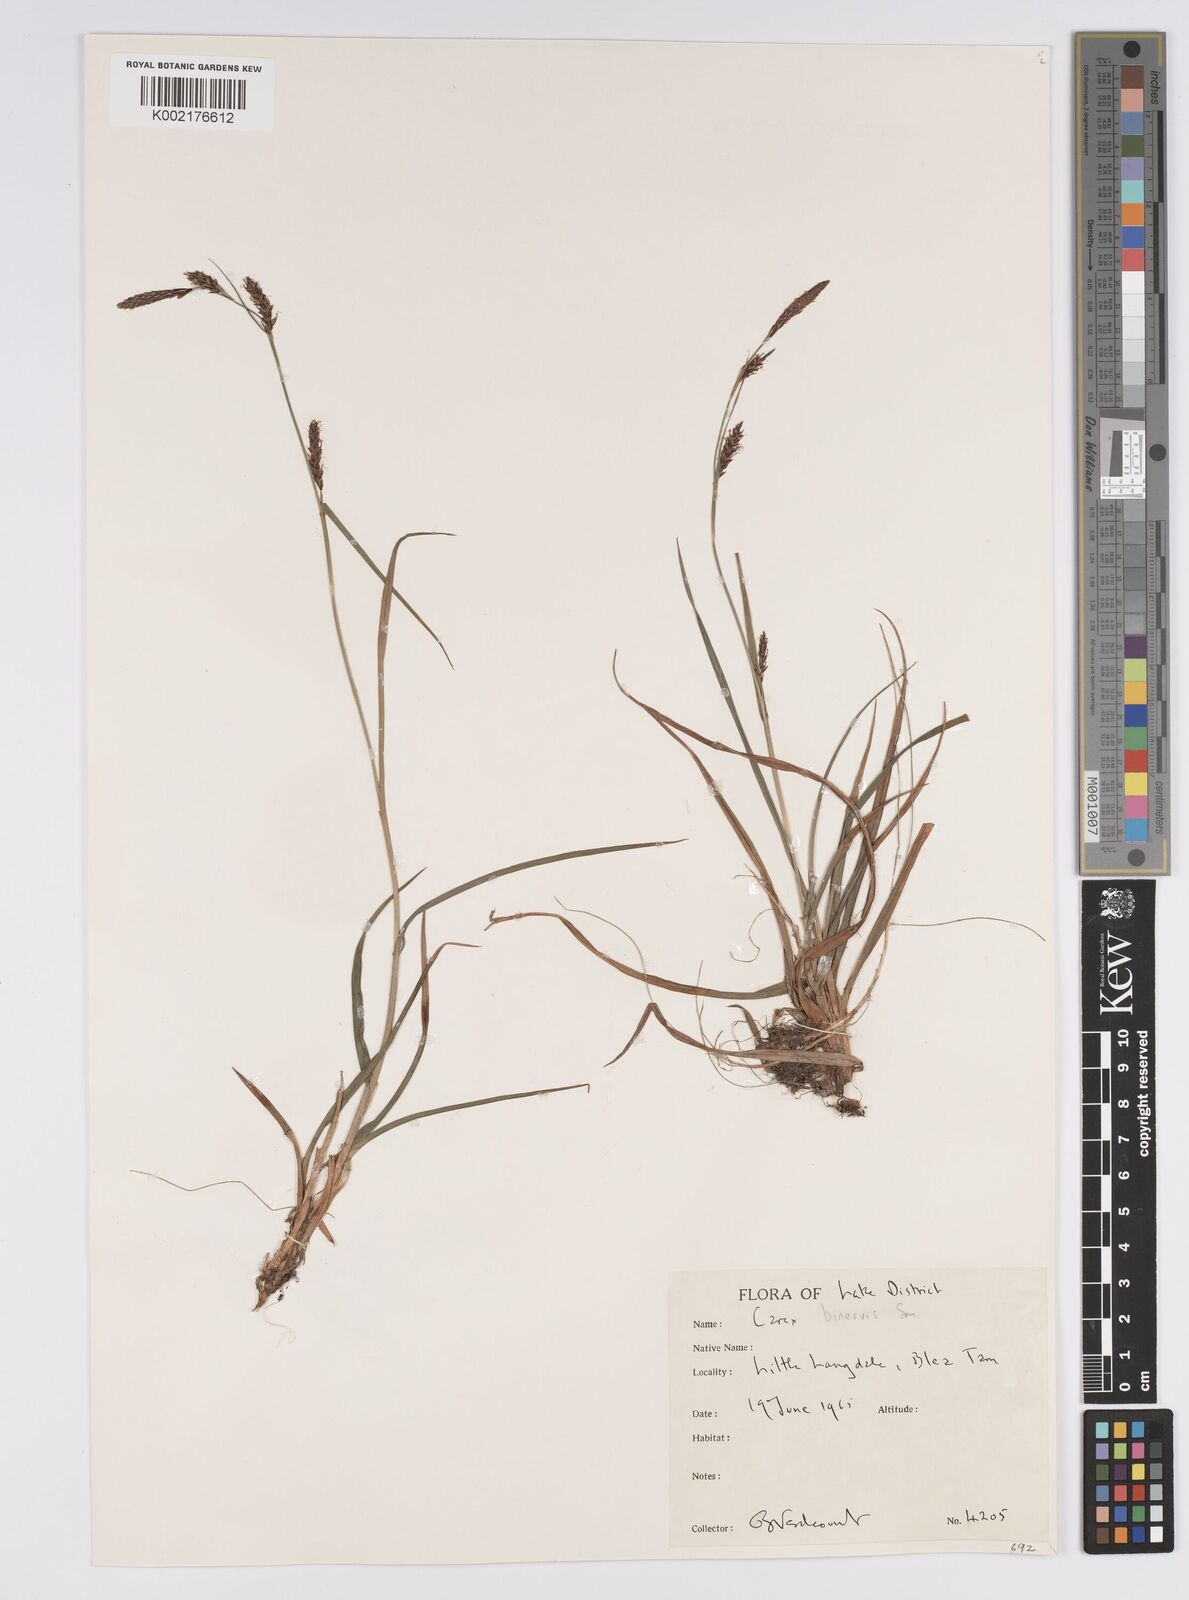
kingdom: Plantae
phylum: Tracheophyta
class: Liliopsida
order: Poales
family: Cyperaceae
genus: Carex
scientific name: Carex binervis
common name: Green-ribbed sedge
